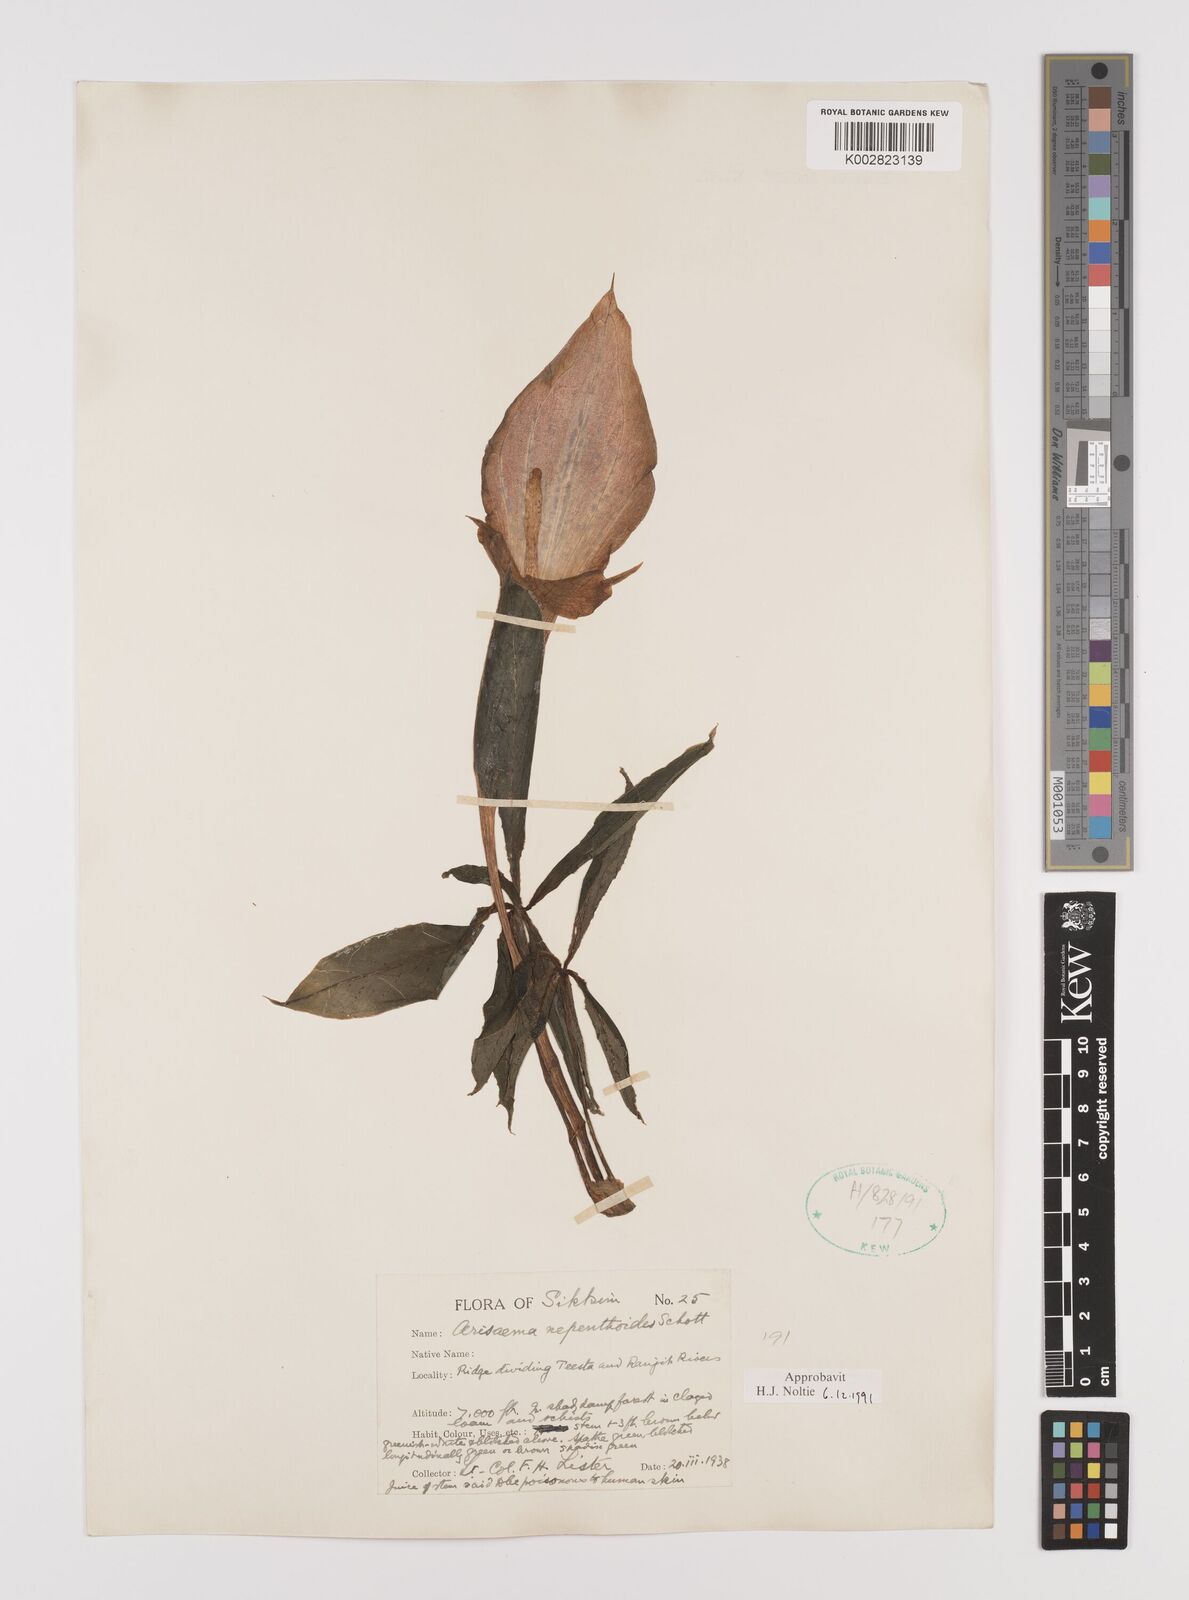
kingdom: Plantae
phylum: Tracheophyta
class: Liliopsida
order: Alismatales
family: Araceae
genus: Arisaema
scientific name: Arisaema nepenthoides
